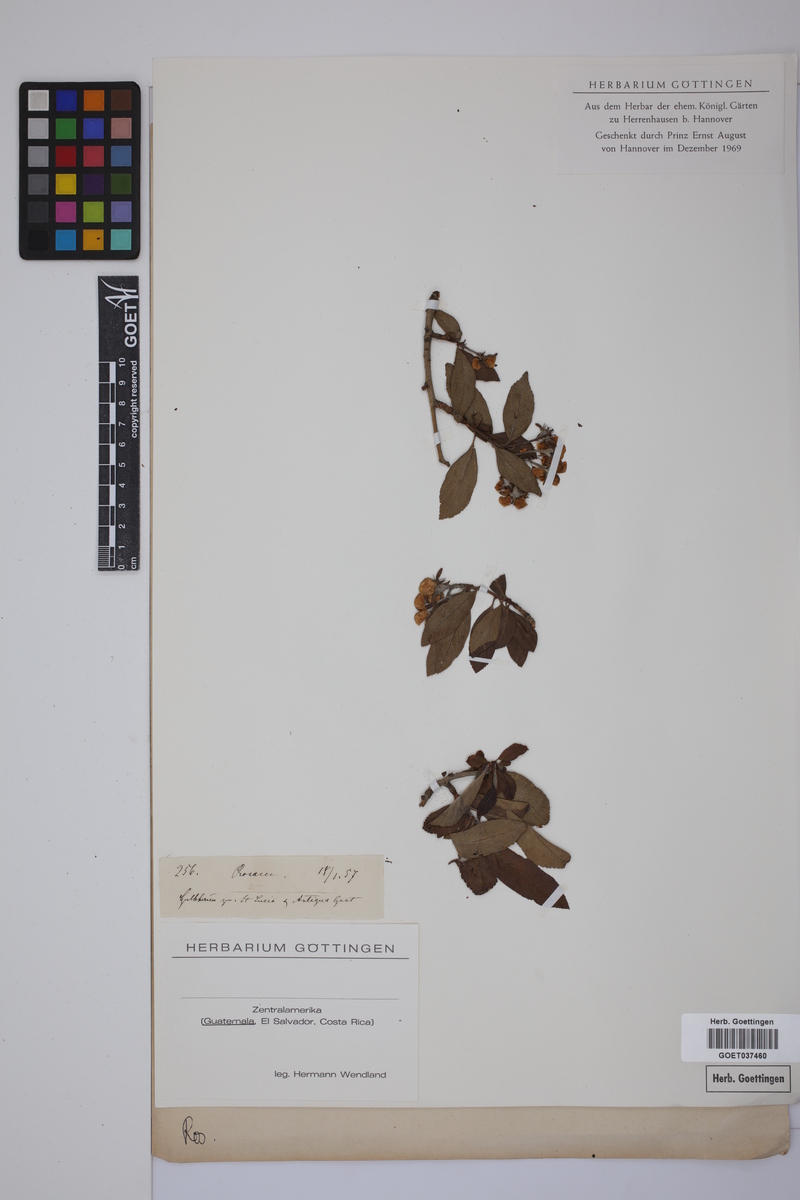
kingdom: Plantae
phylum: Tracheophyta
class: Magnoliopsida
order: Rosales
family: Rosaceae
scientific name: Rosaceae
